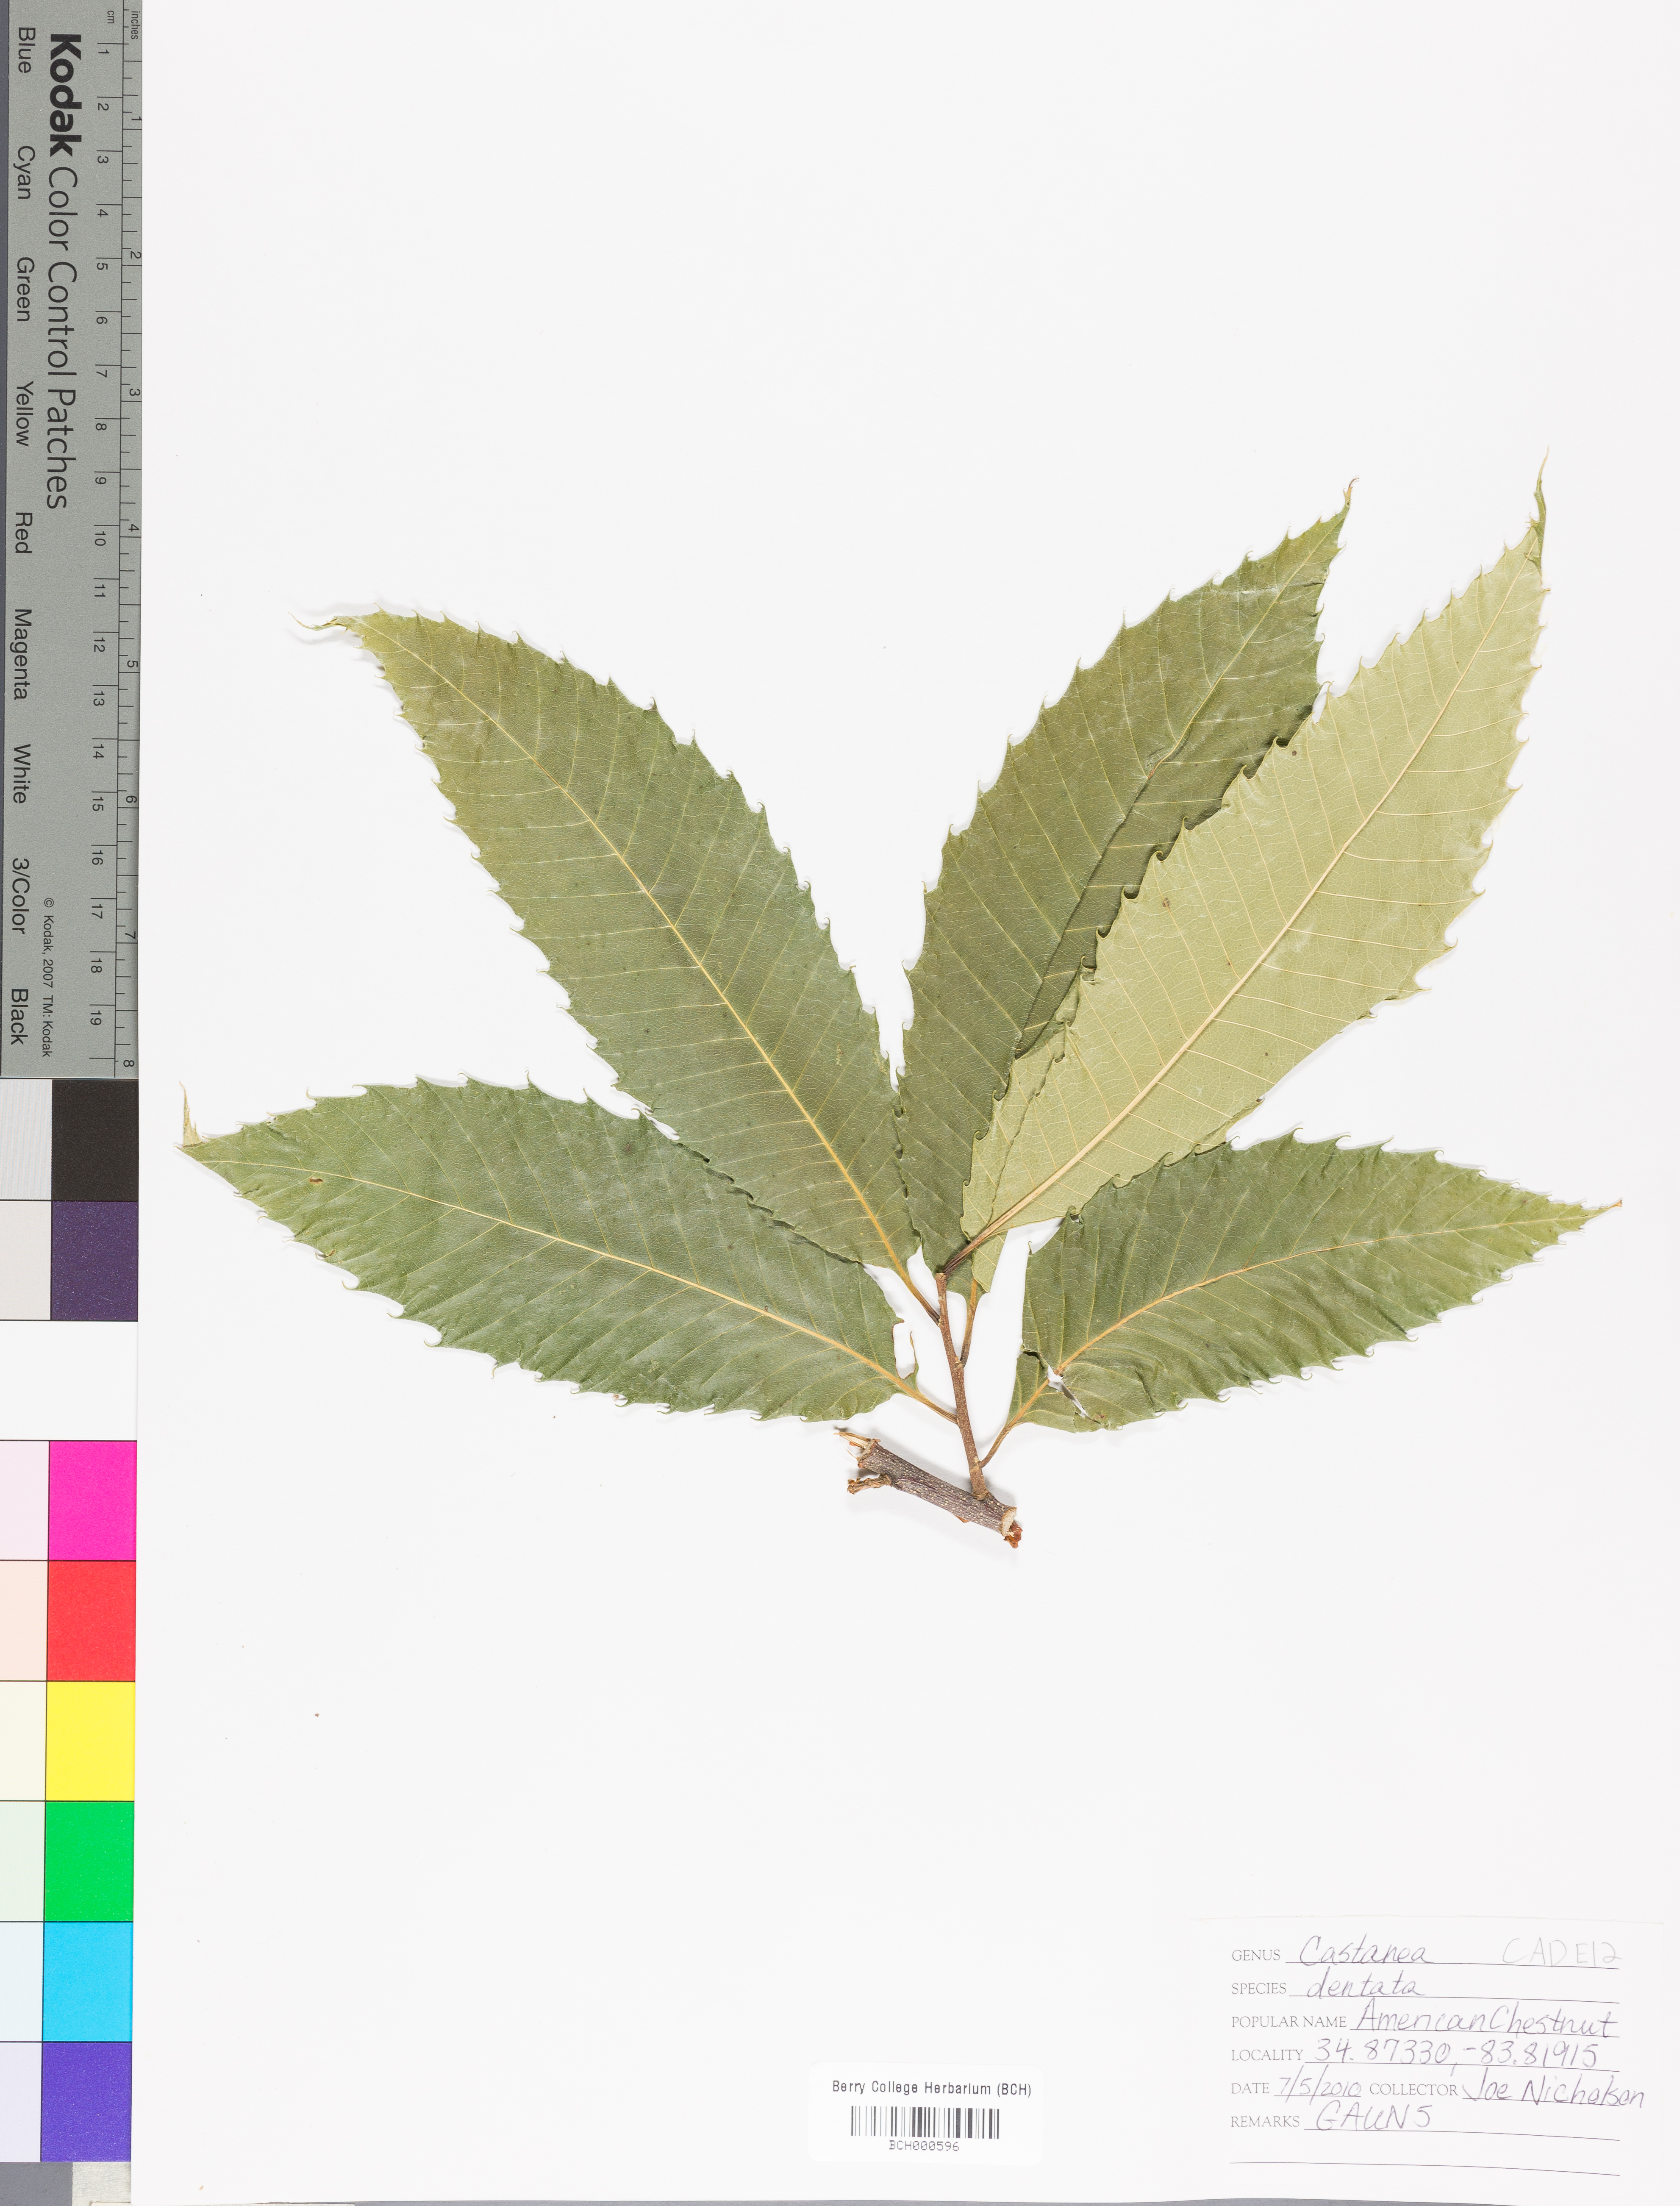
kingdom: Plantae
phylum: Tracheophyta
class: Magnoliopsida
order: Fagales
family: Fagaceae
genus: Castanea
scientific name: Castanea dentata
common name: American chestnut
